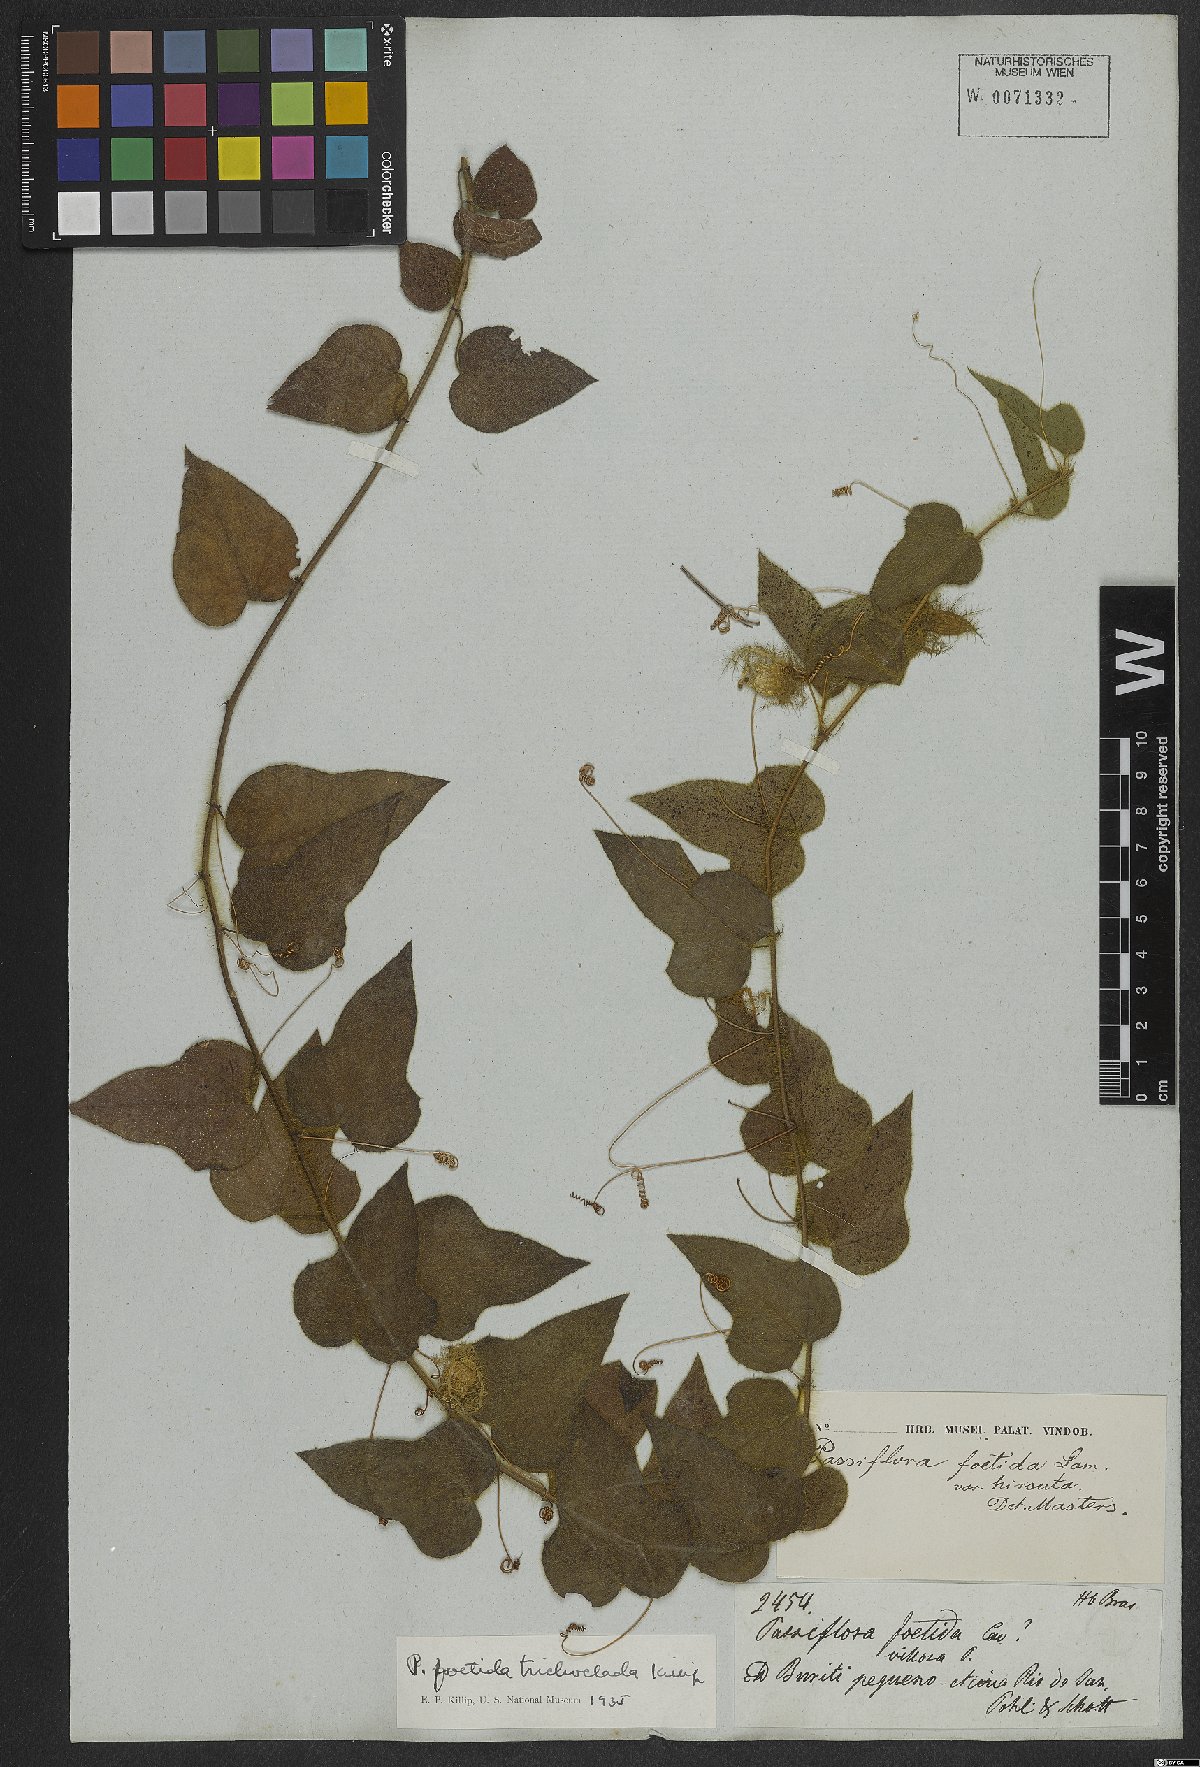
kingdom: Plantae
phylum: Tracheophyta
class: Magnoliopsida
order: Malpighiales
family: Passifloraceae
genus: Passiflora
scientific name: Passiflora foetida
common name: Fetid passionflower
